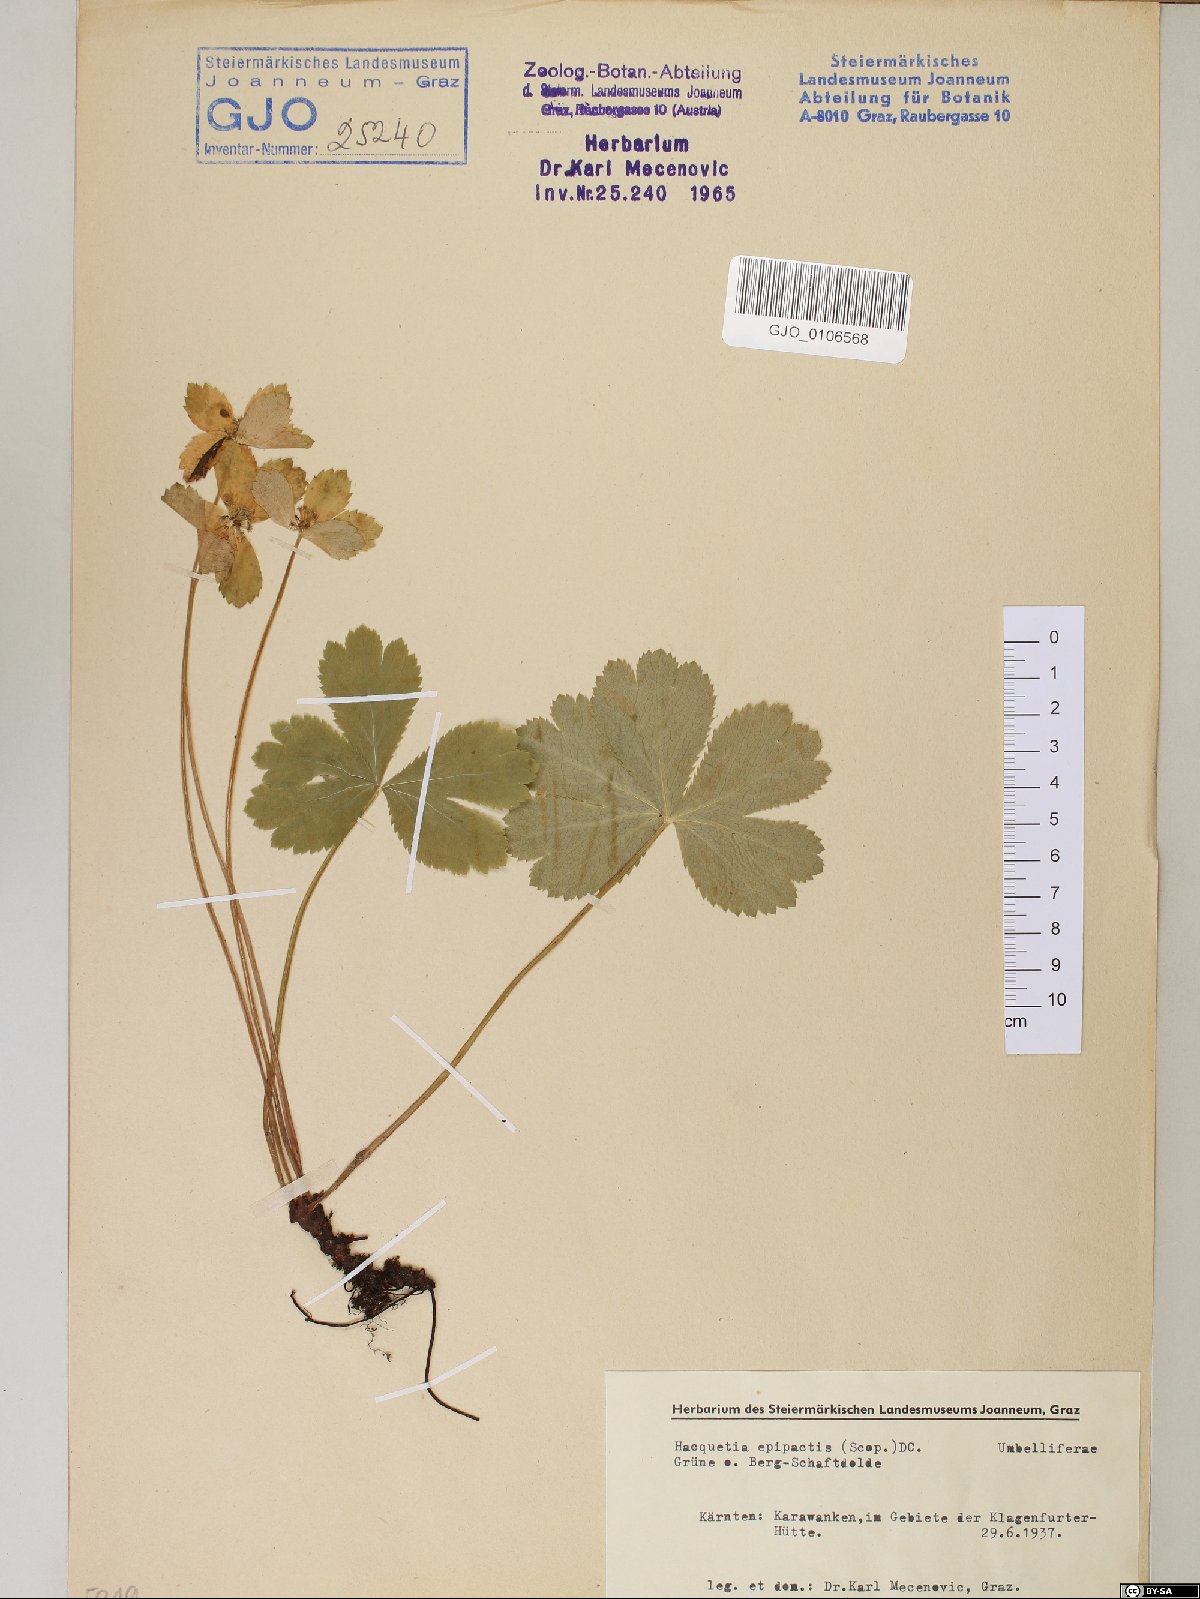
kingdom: Plantae
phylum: Tracheophyta
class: Magnoliopsida
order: Apiales
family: Apiaceae
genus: Sanicula
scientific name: Sanicula epipactis
